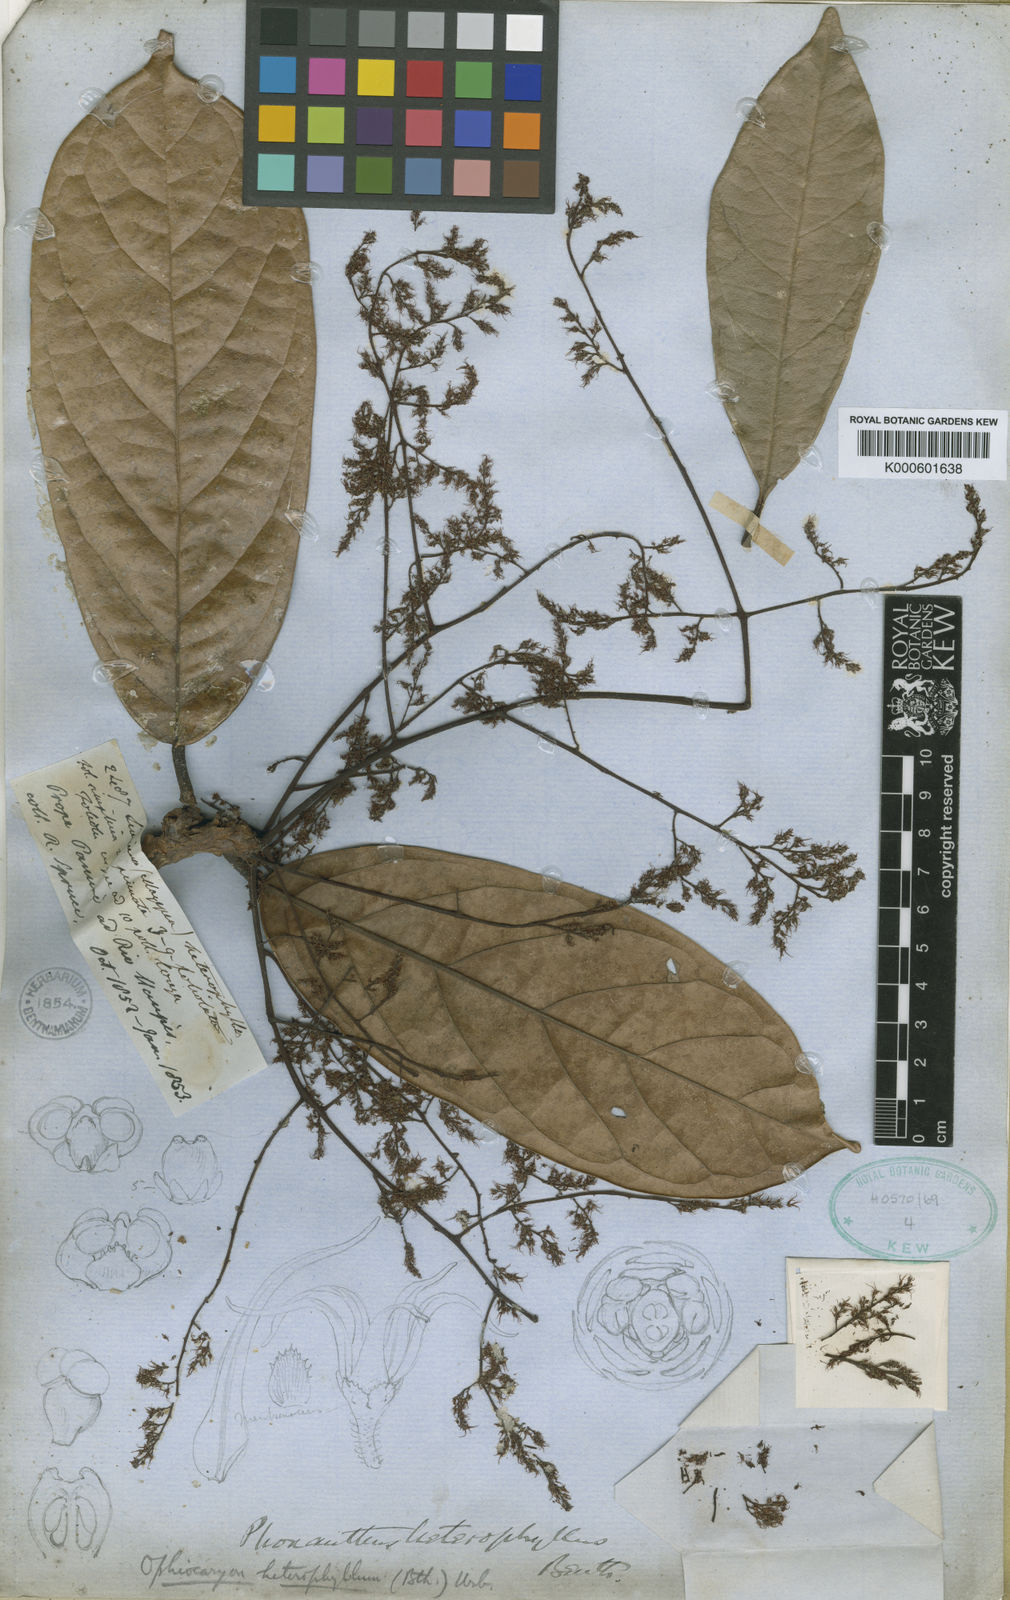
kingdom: Plantae
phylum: Tracheophyta
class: Magnoliopsida
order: Proteales
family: Sabiaceae
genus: Ophiocaryon
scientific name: Ophiocaryon heterophyllum
